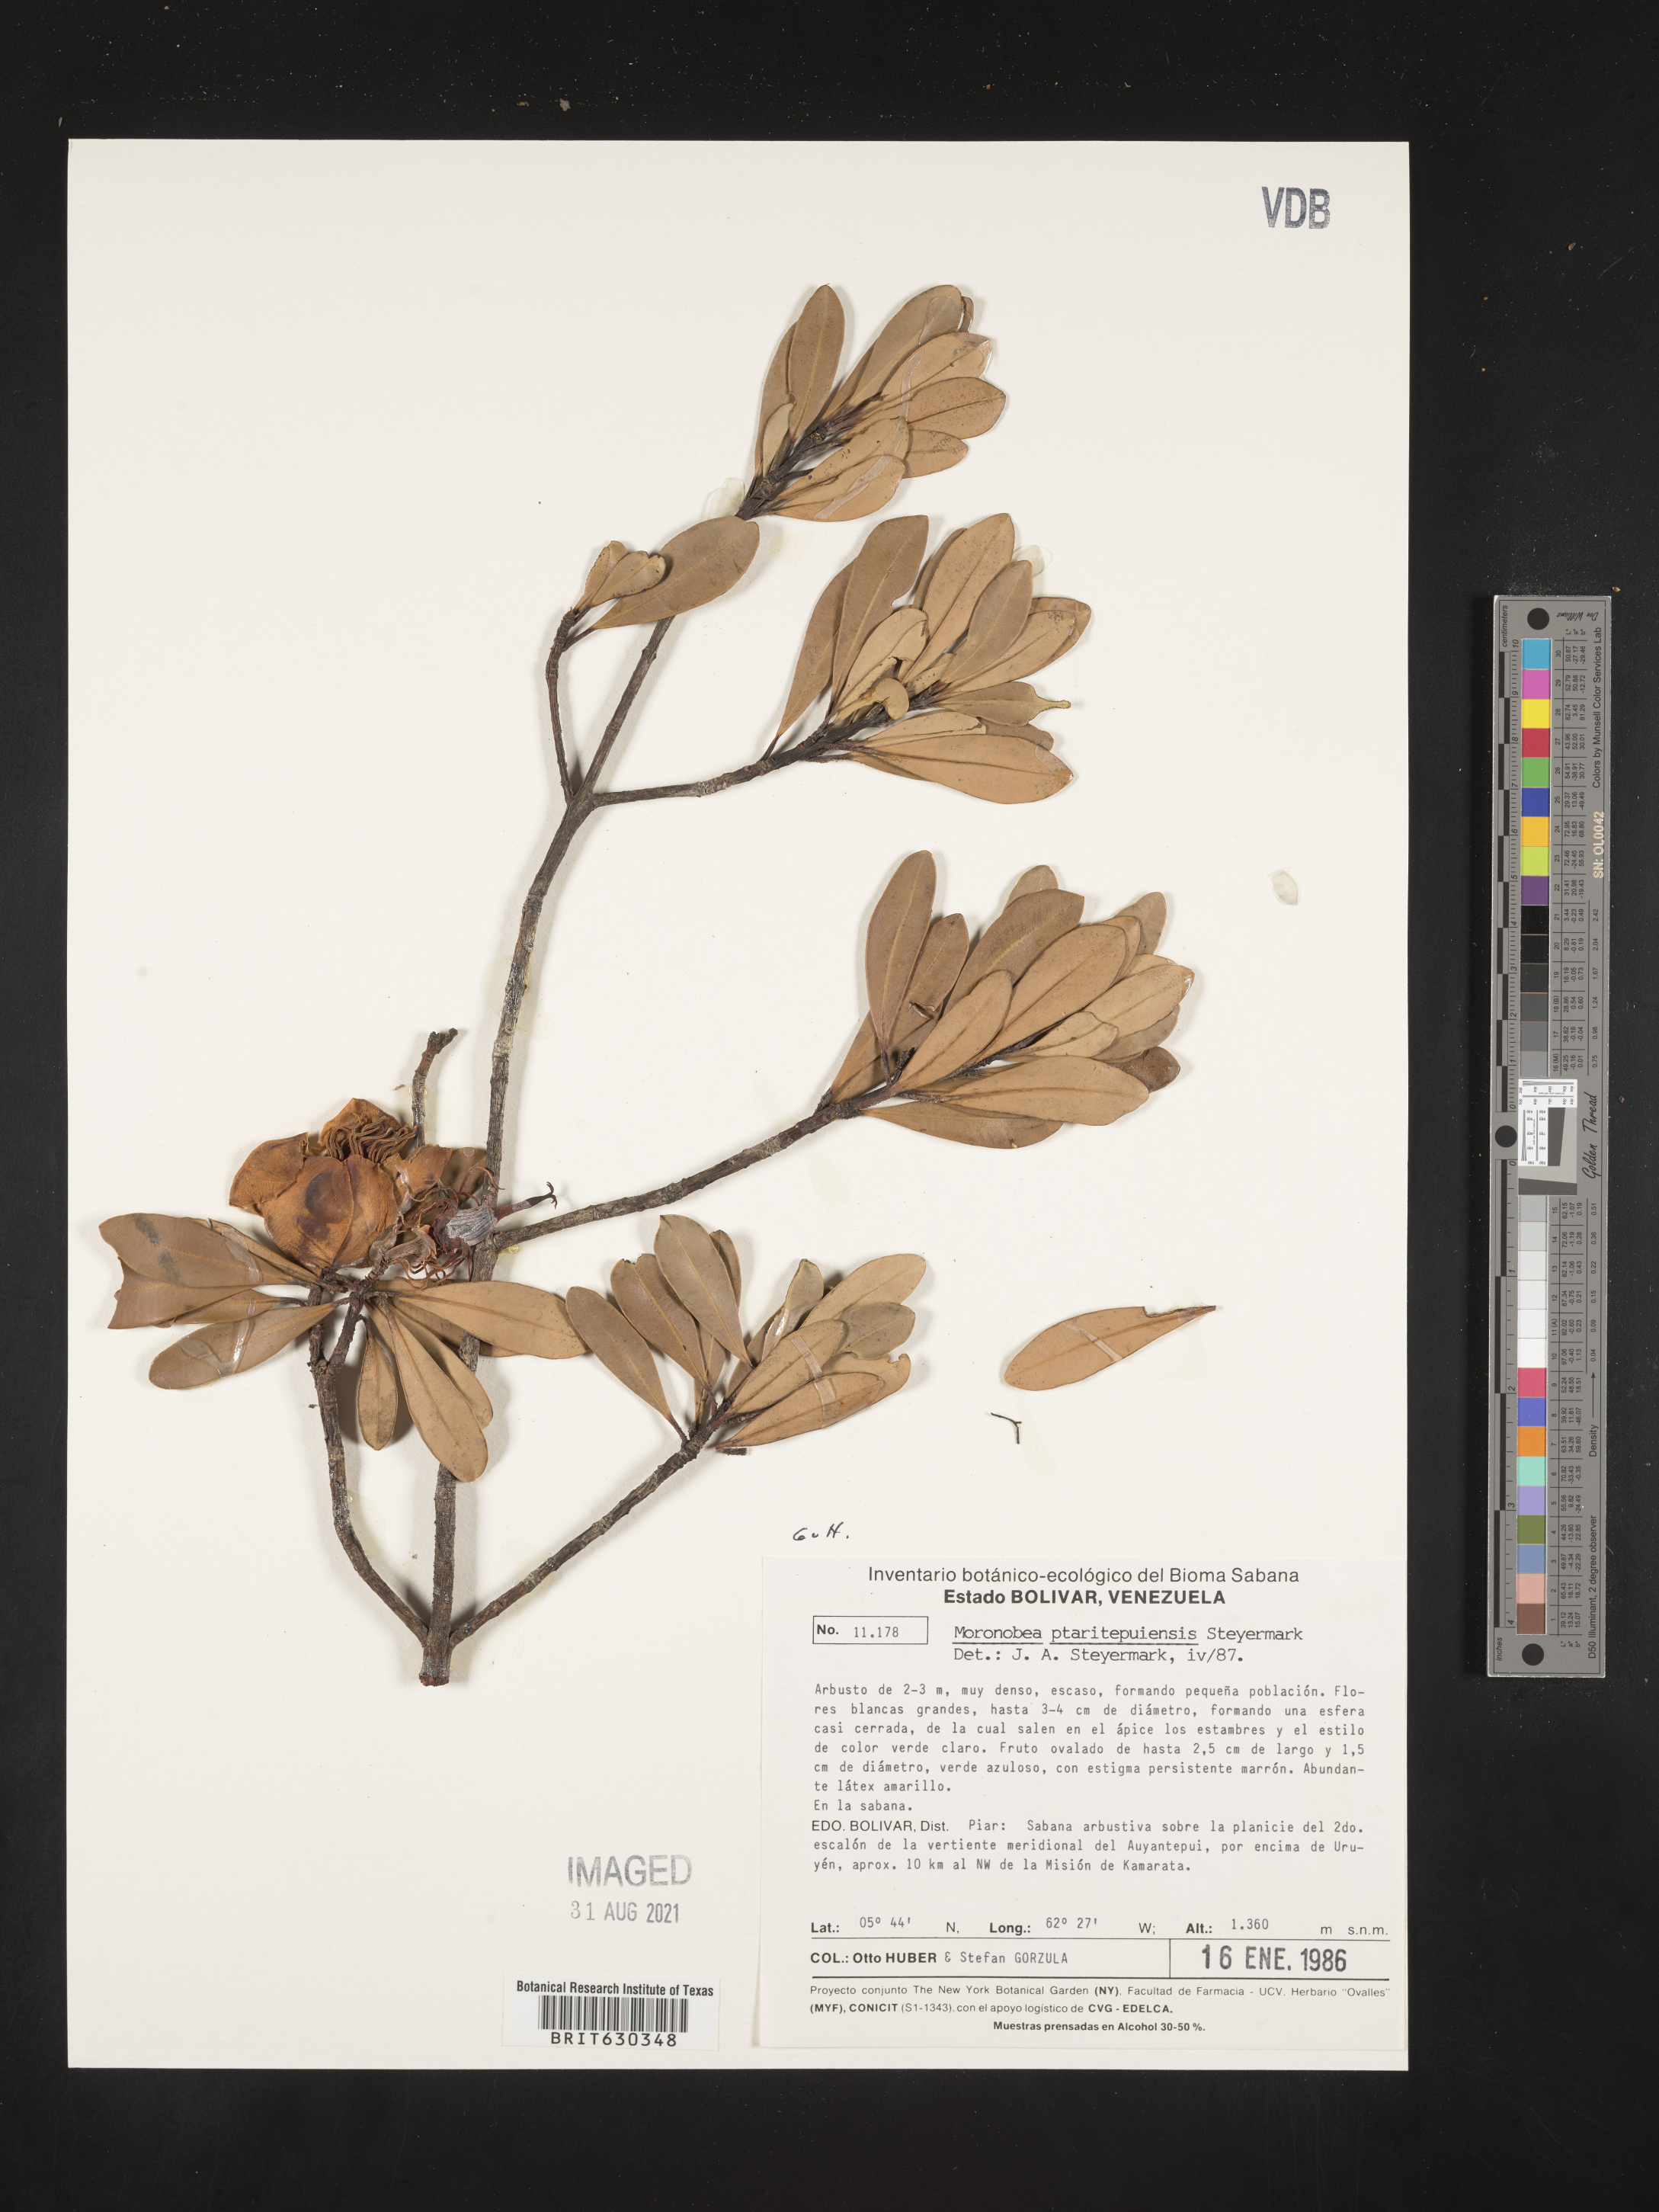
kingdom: Plantae
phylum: Tracheophyta
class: Magnoliopsida
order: Malpighiales
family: Clusiaceae
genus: Moronobea
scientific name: Moronobea ptaritepuiana
